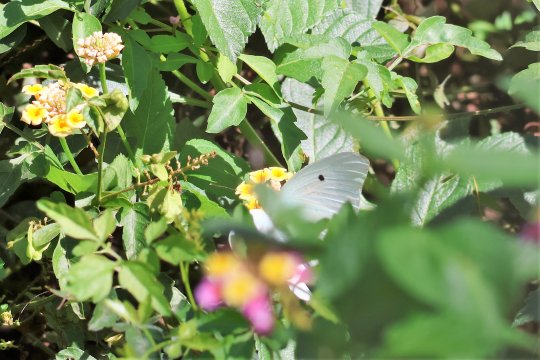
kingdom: Animalia
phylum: Arthropoda
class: Insecta
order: Lepidoptera
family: Pieridae
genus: Ganyra
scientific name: Ganyra josephina
